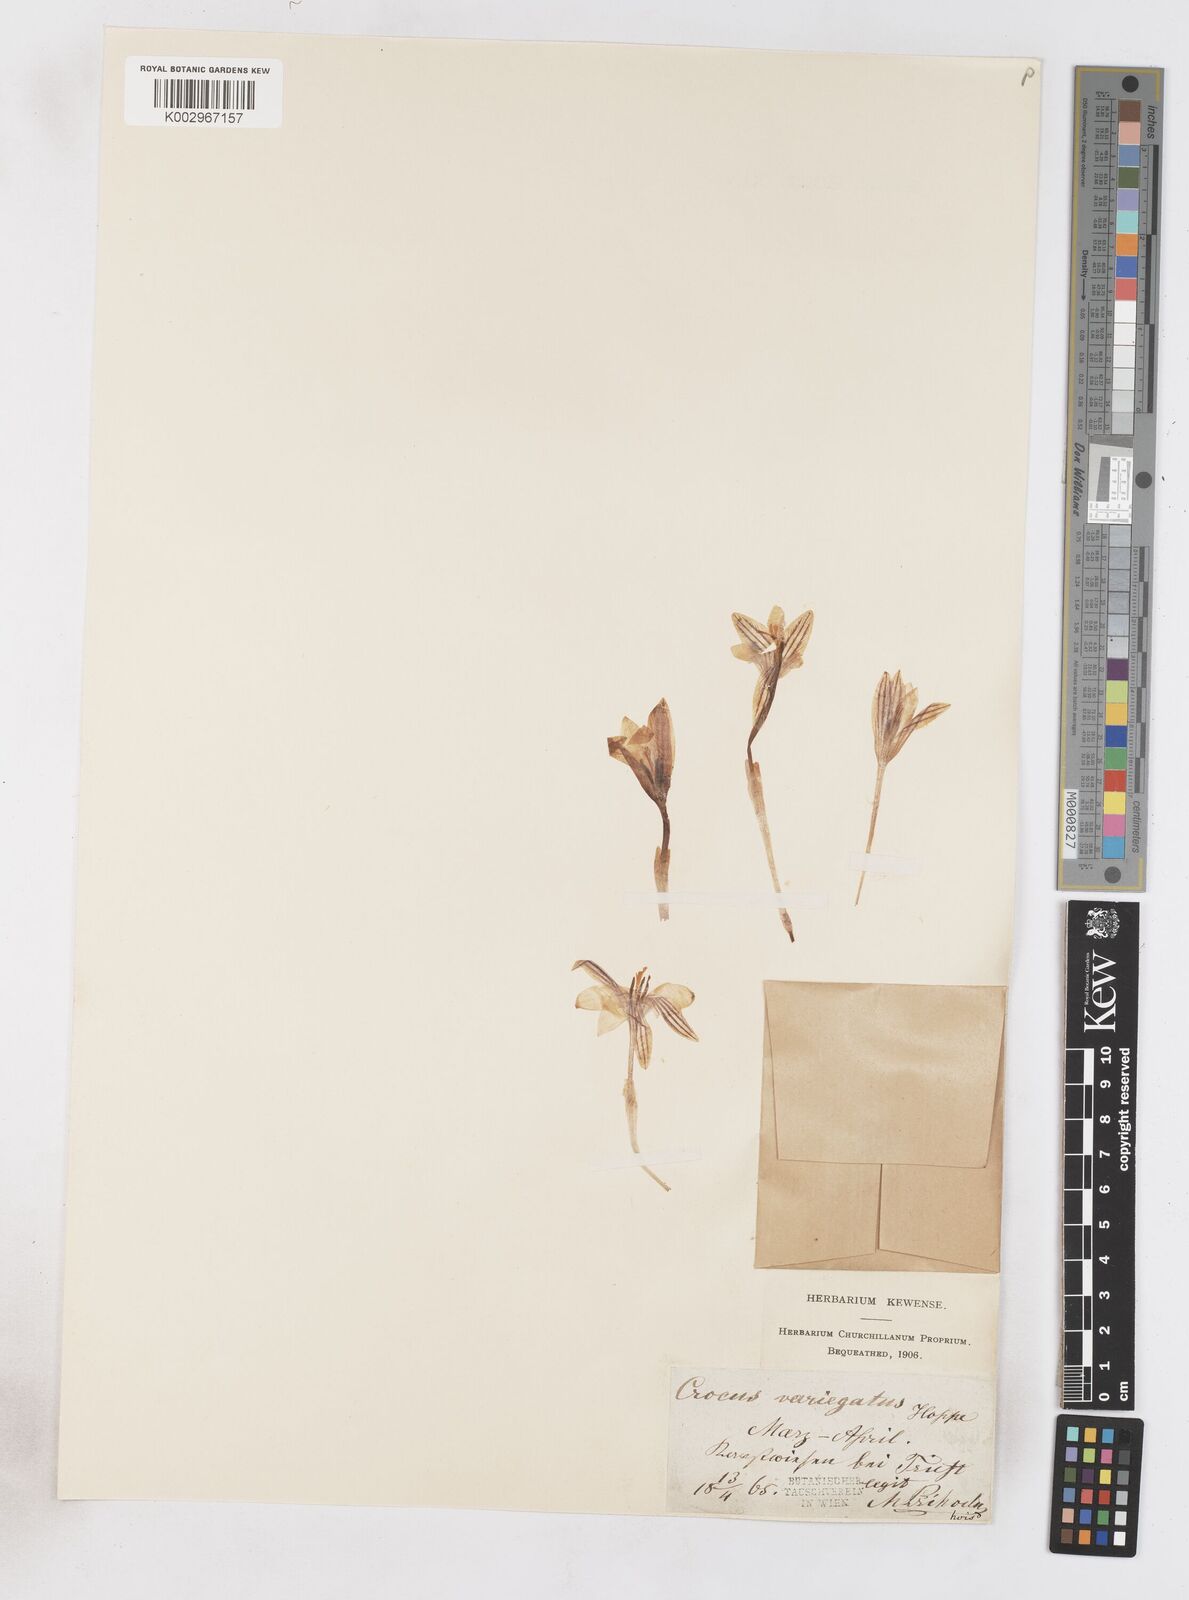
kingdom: Plantae
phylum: Tracheophyta
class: Liliopsida
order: Asparagales
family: Iridaceae
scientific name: Iridaceae
